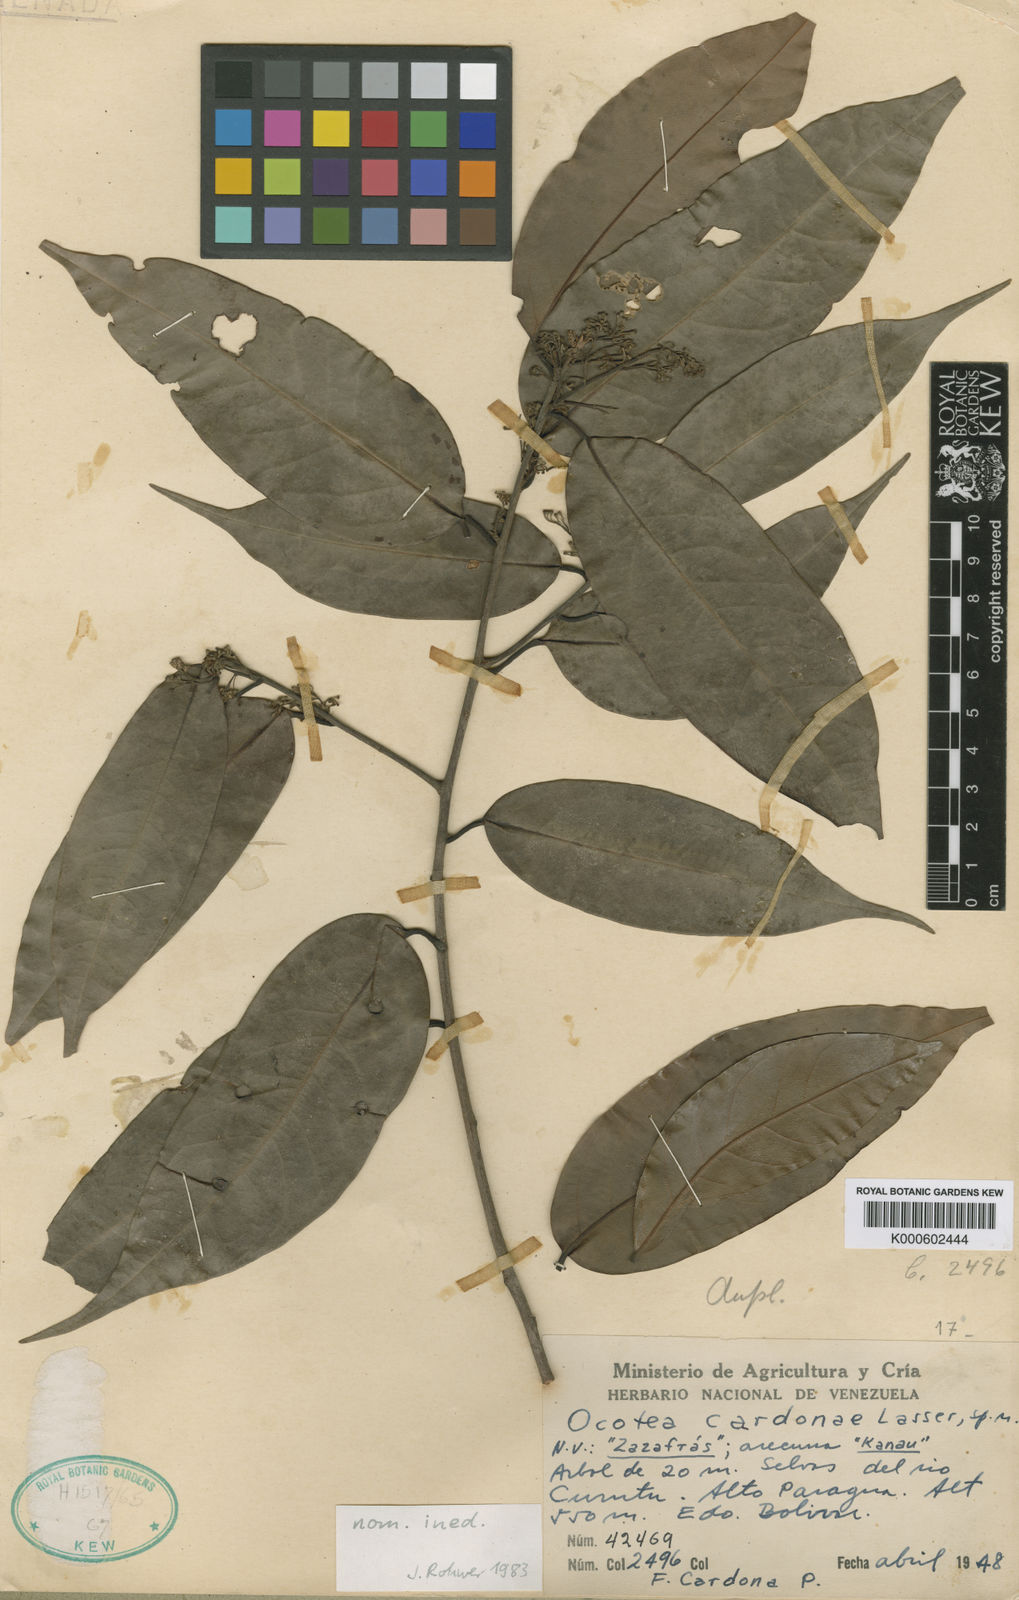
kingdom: Plantae
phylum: Tracheophyta
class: Magnoliopsida
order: Laurales
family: Lauraceae
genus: Ocotea
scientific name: Ocotea
